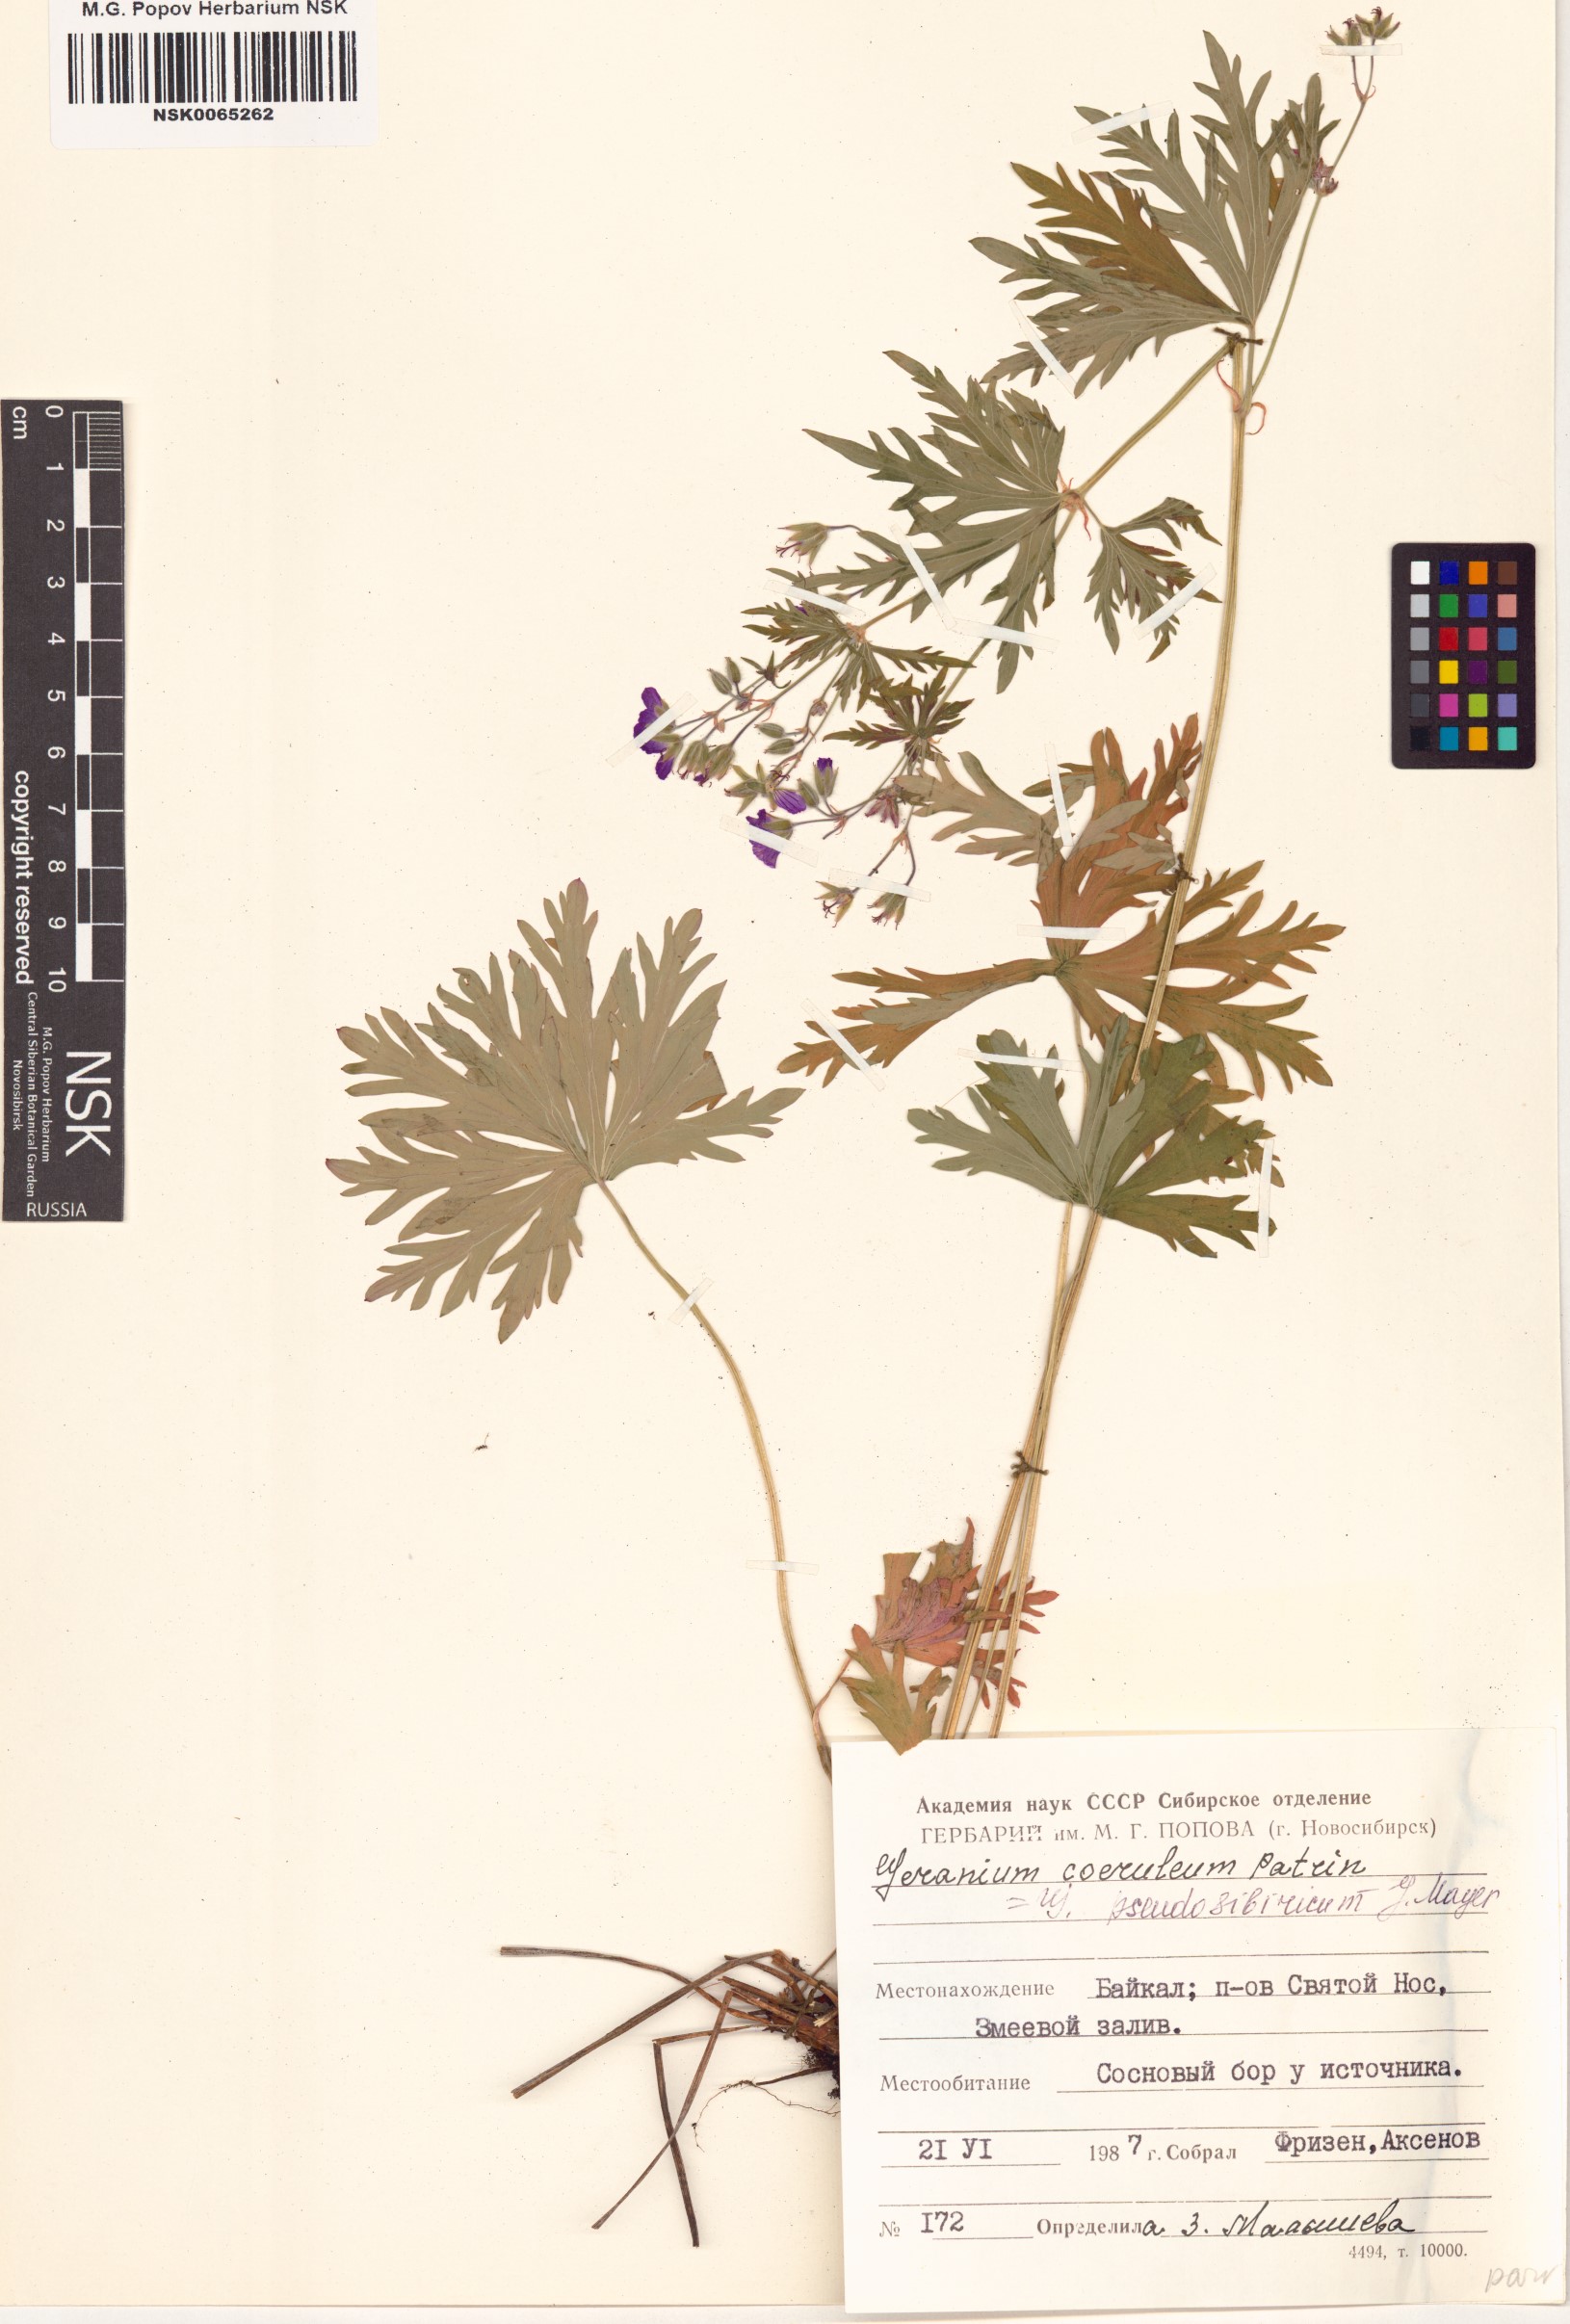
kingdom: Plantae
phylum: Tracheophyta
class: Magnoliopsida
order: Geraniales
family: Geraniaceae
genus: Geranium
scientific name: Geranium pseudosibiricum
